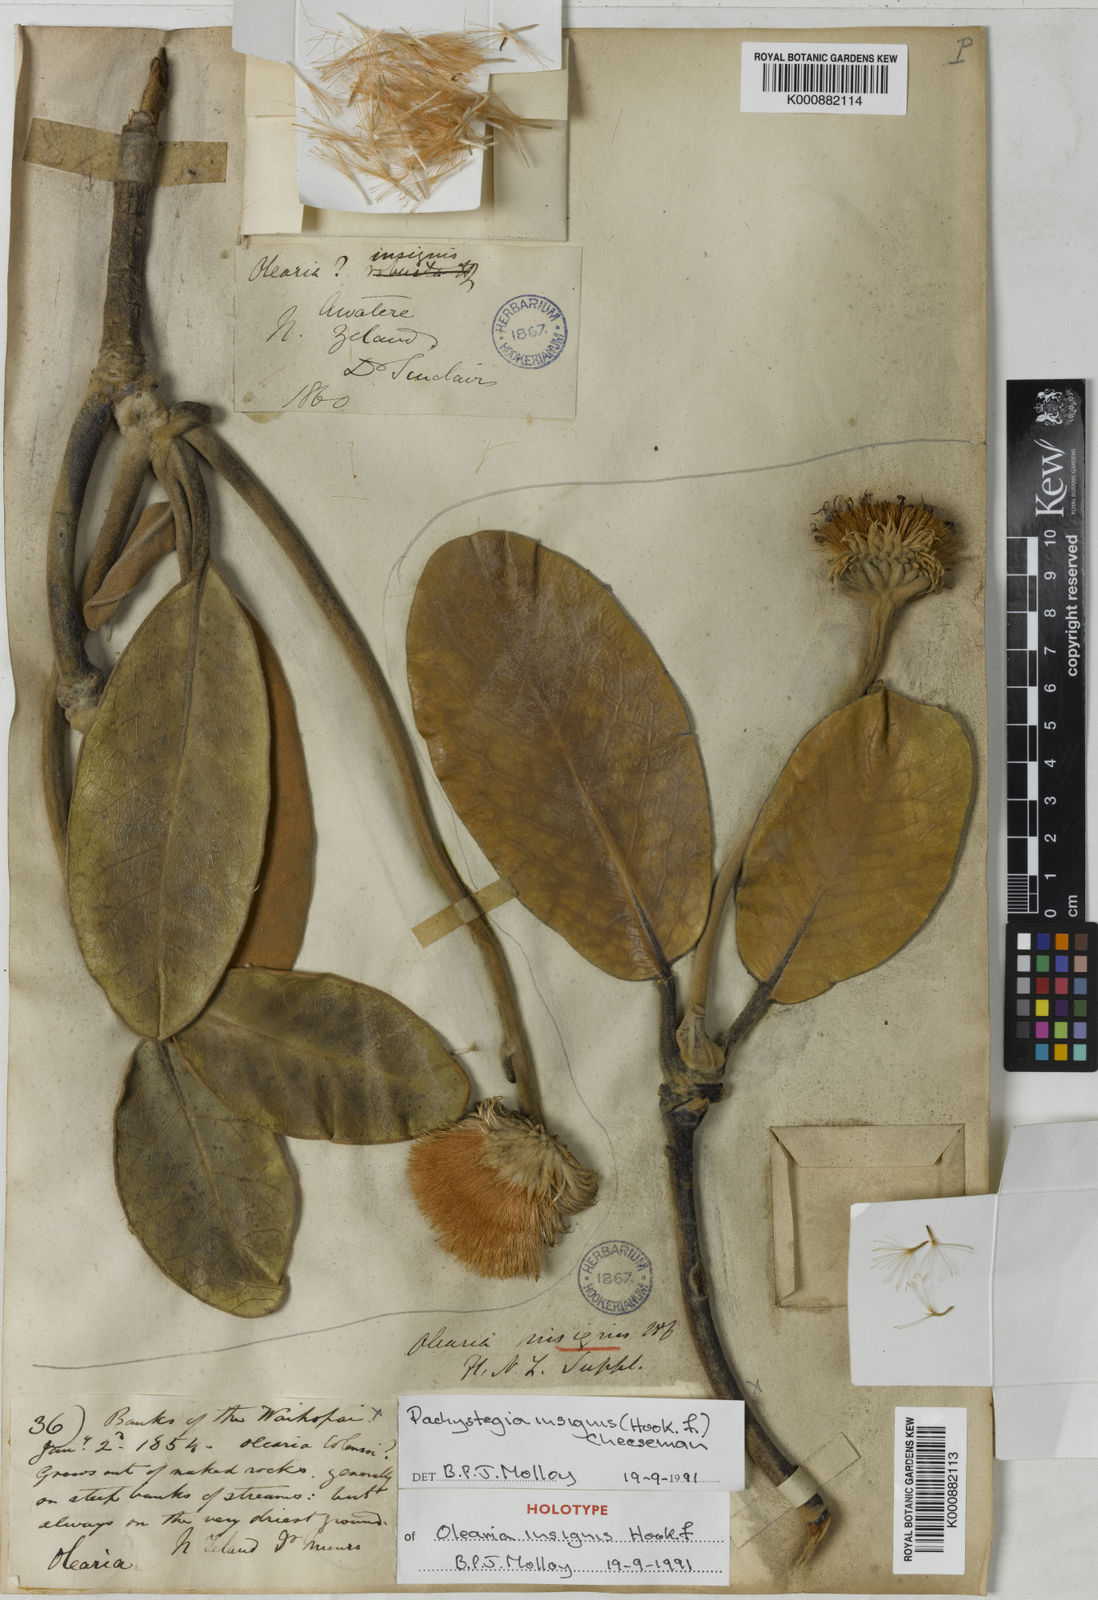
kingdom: Plantae
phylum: Tracheophyta
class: Magnoliopsida
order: Asterales
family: Asteraceae
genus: Pachystegia
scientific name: Pachystegia insignis
